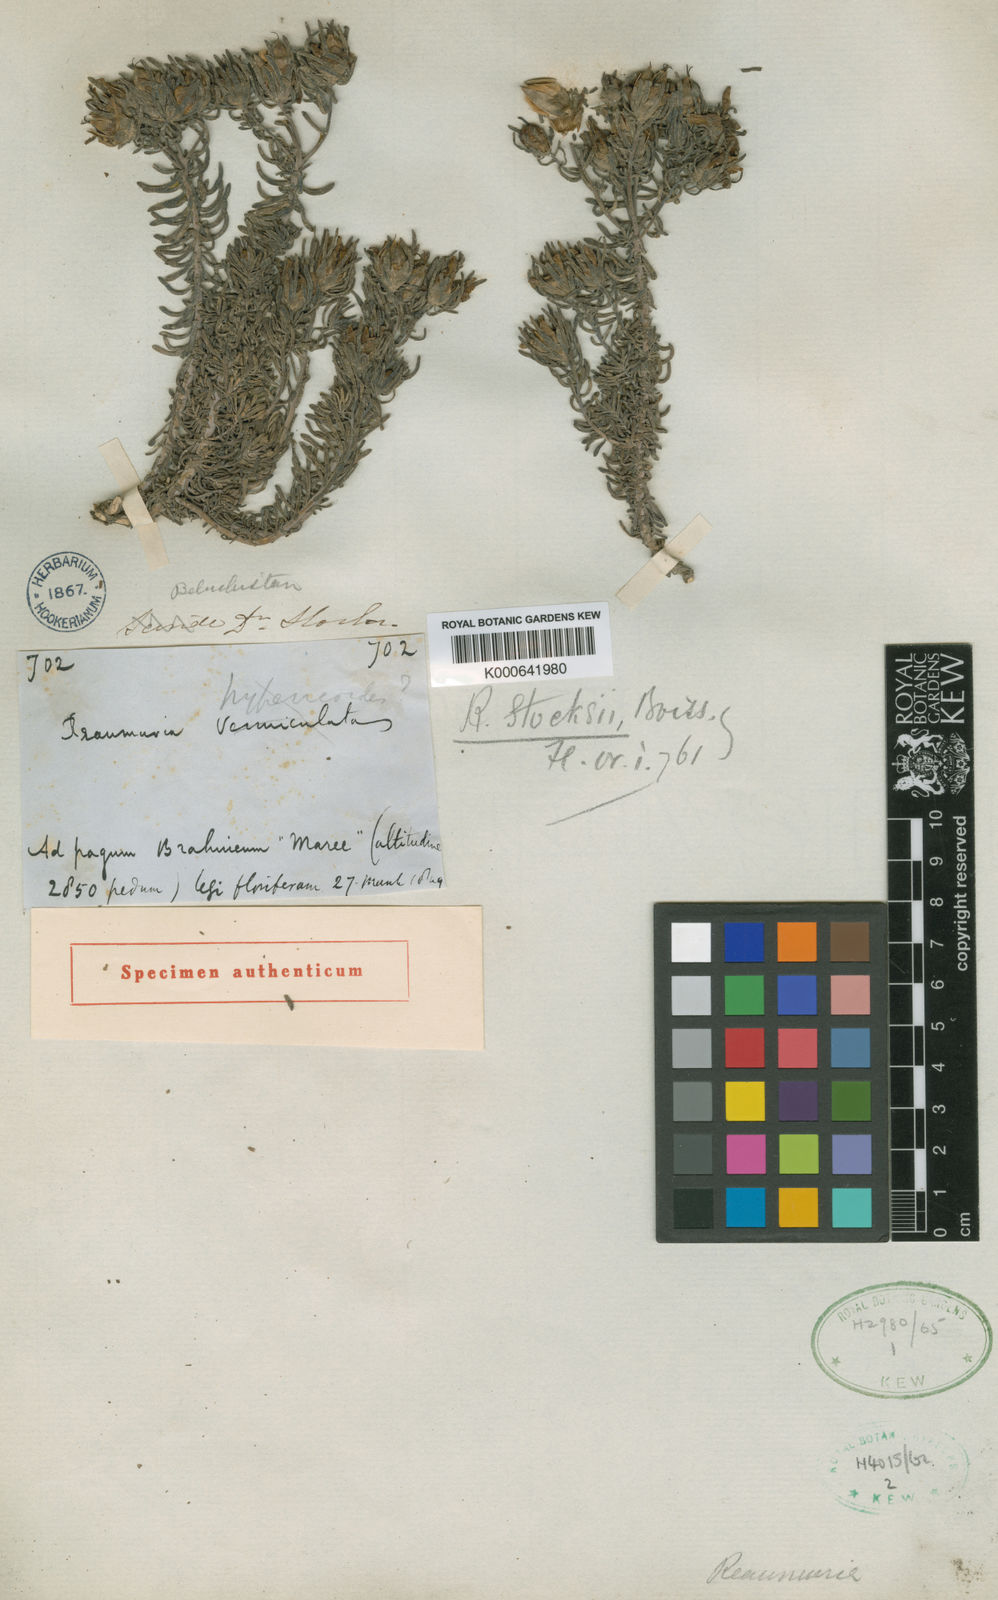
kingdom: Plantae
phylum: Tracheophyta
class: Magnoliopsida
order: Caryophyllales
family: Tamaricaceae
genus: Reaumuria
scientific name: Reaumuria stocksii
